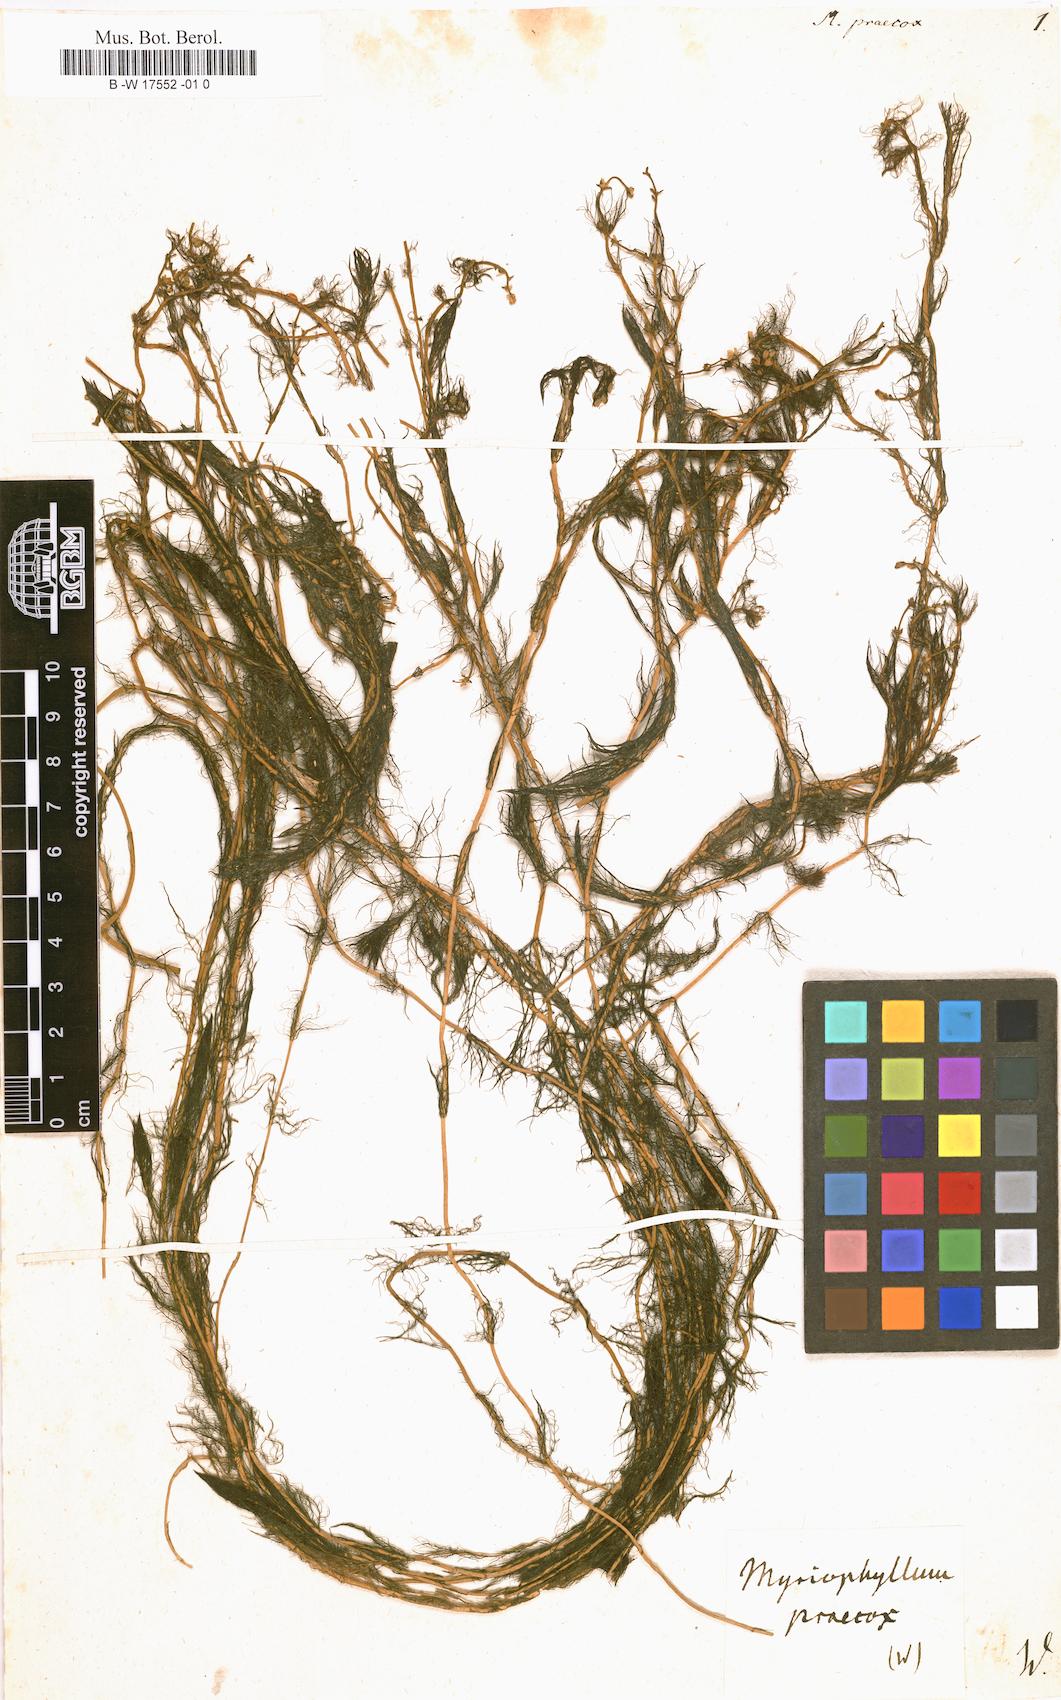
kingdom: Plantae
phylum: Tracheophyta
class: Magnoliopsida
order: Saxifragales
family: Haloragaceae
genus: Myriophyllum
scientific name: Myriophyllum
